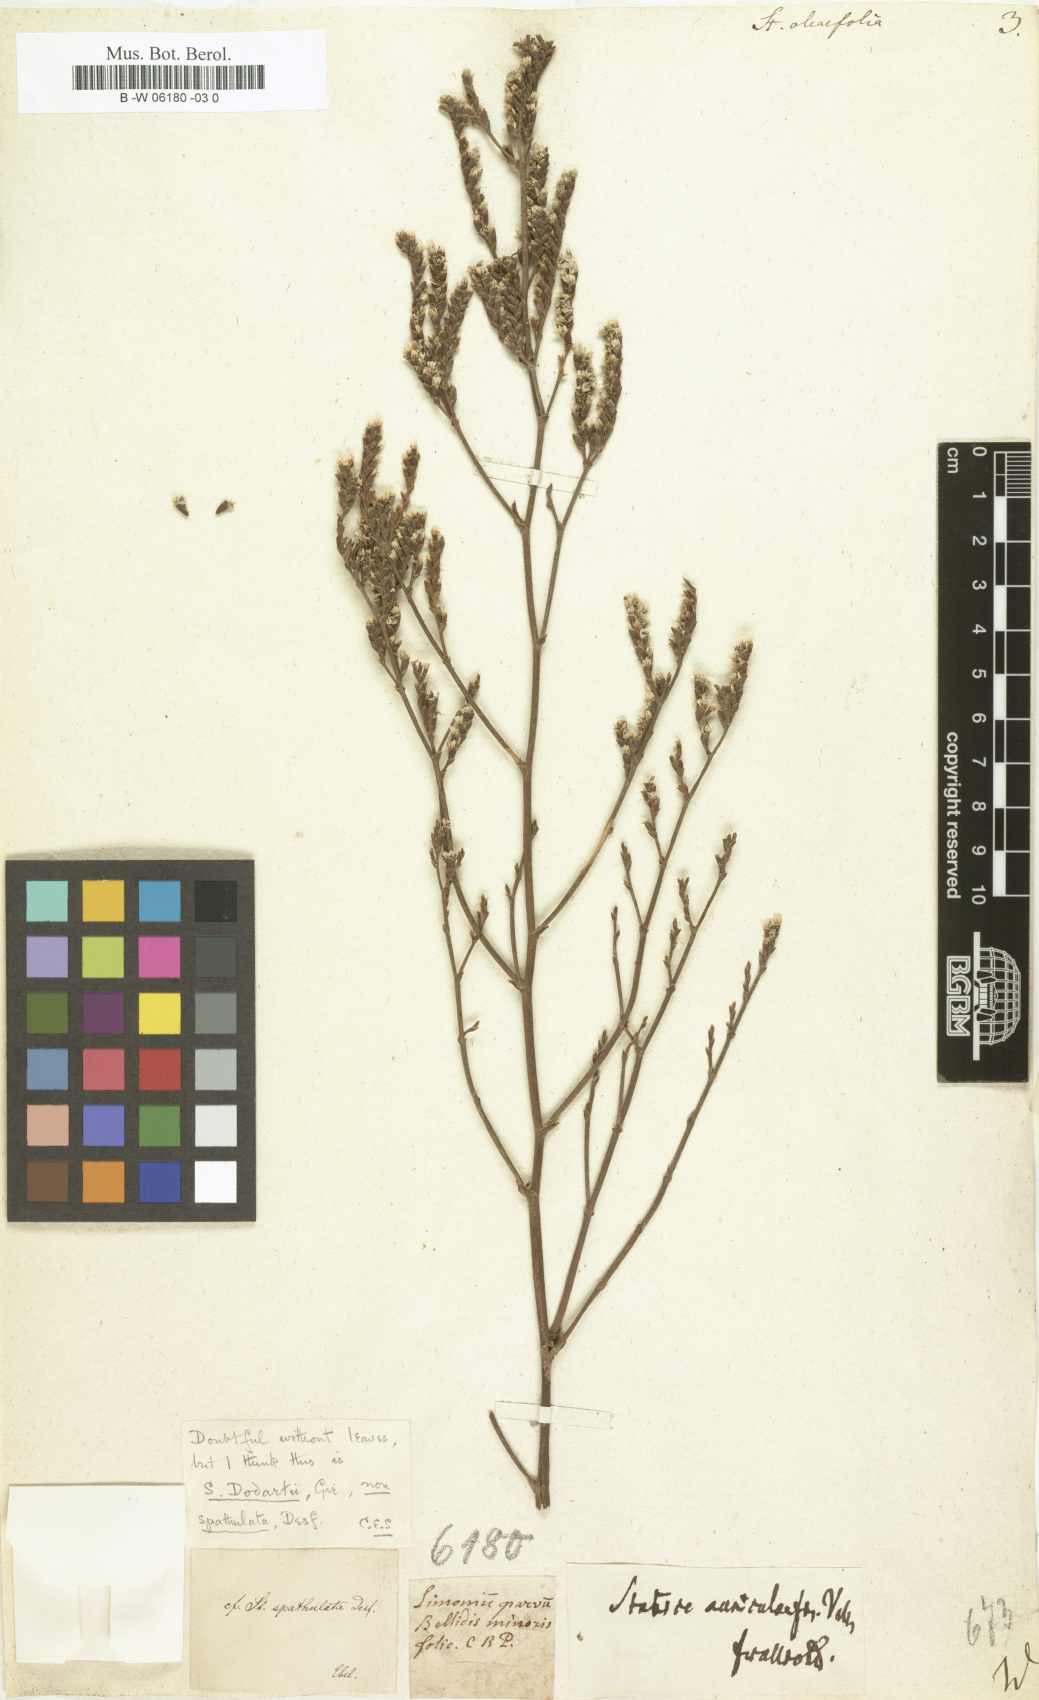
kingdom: Plantae
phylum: Tracheophyta
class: Magnoliopsida
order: Caryophyllales
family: Plumbaginaceae
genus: Limonium
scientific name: Limonium
